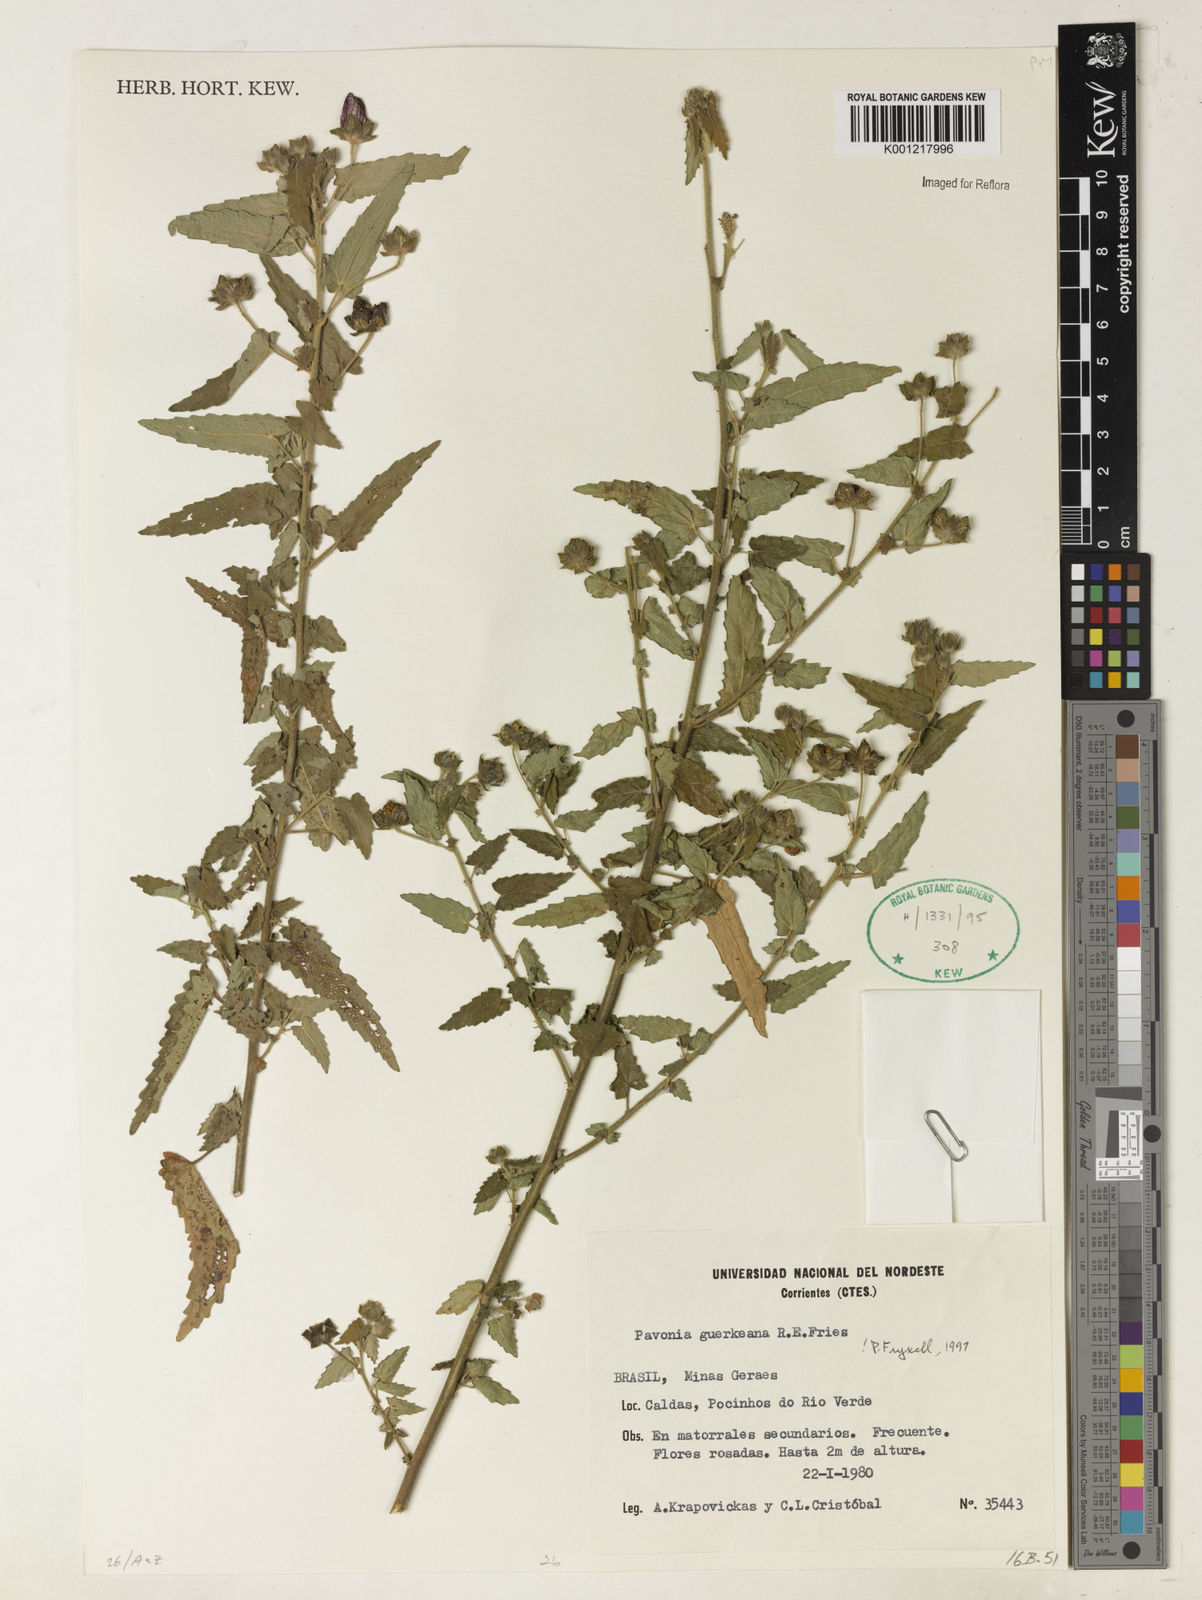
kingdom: Plantae
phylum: Tracheophyta
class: Magnoliopsida
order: Malvales
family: Malvaceae
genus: Pavonia
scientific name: Pavonia guerkeana
